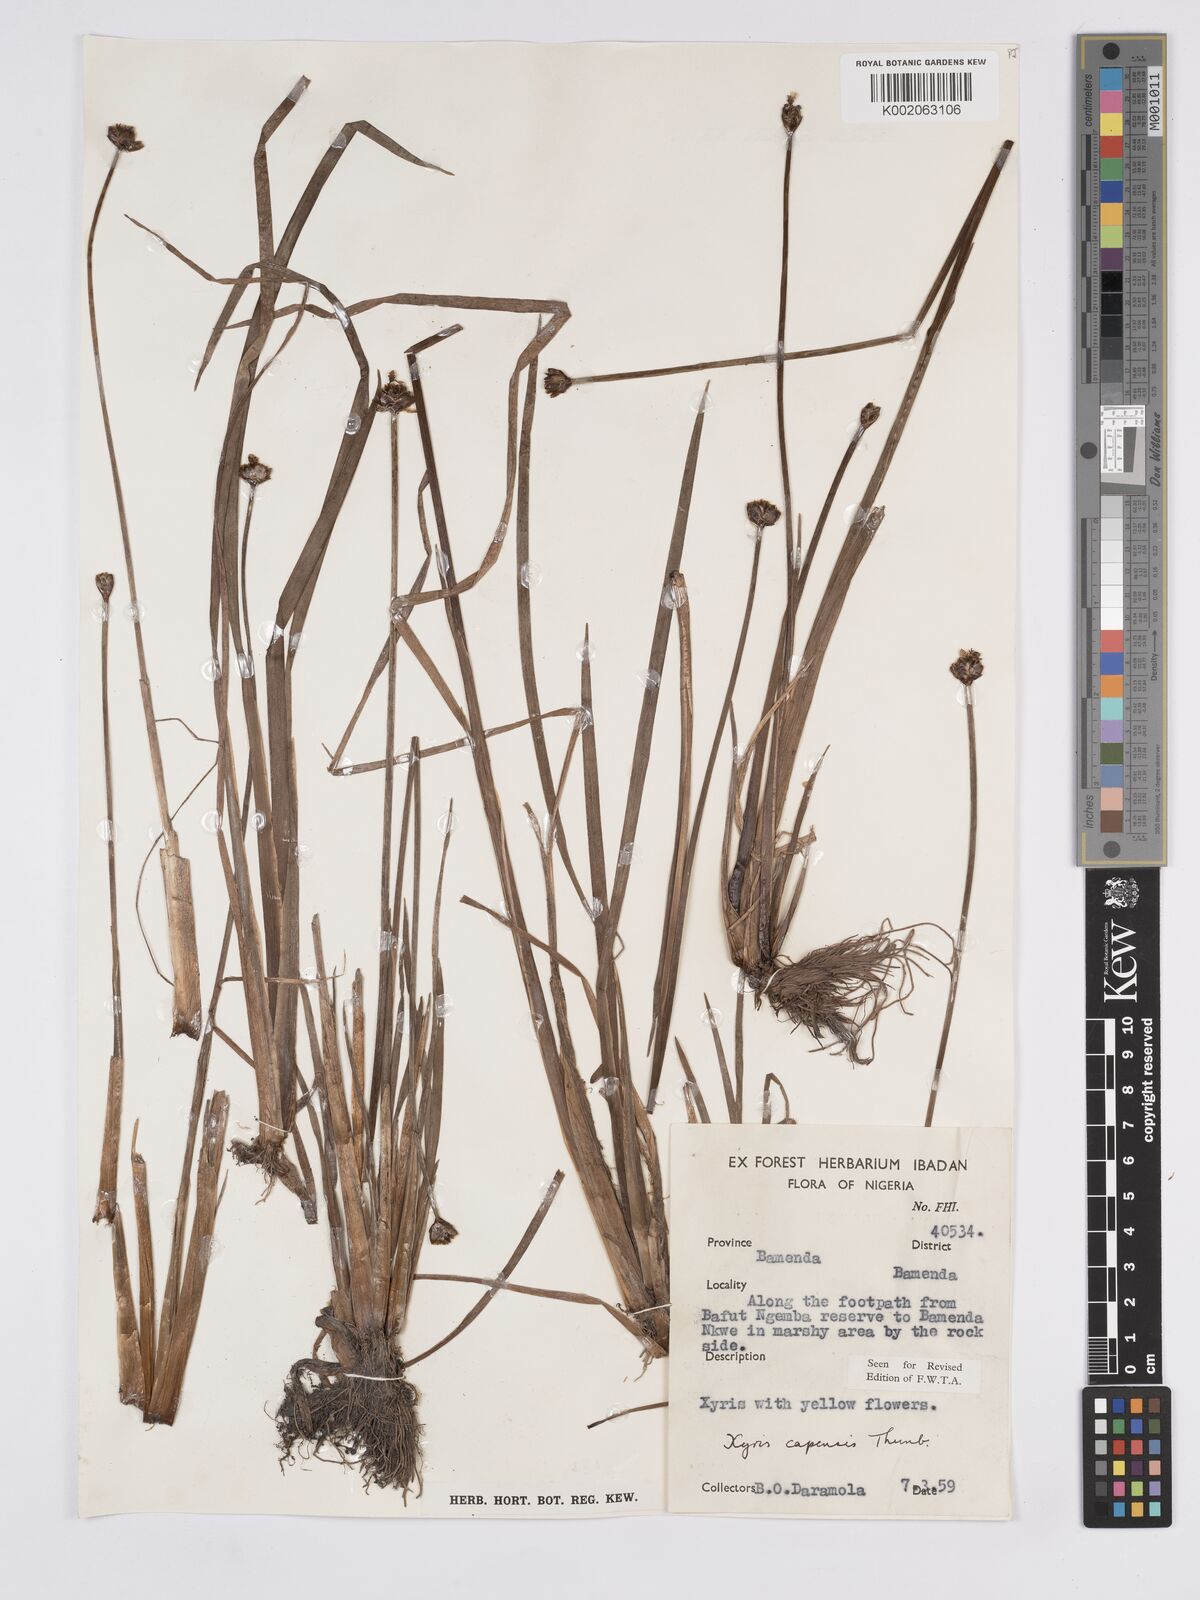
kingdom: Plantae
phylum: Tracheophyta
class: Liliopsida
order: Poales
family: Xyridaceae
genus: Xyris
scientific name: Xyris capensis
